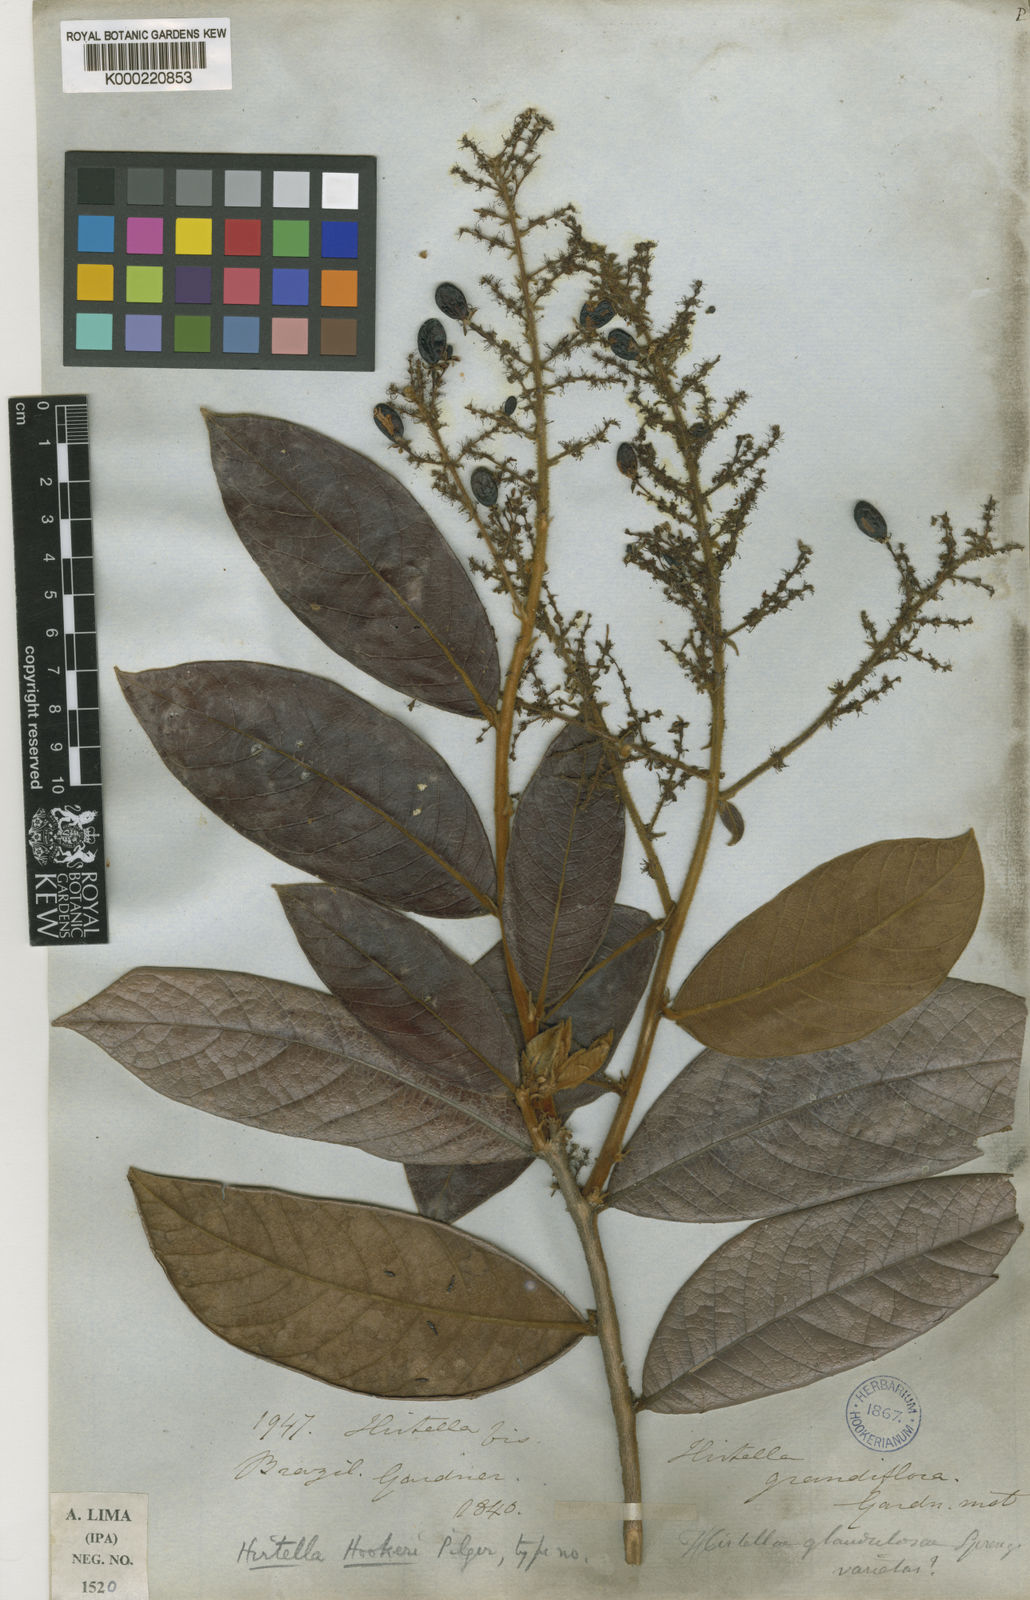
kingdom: Plantae
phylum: Tracheophyta
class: Magnoliopsida
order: Malpighiales
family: Chrysobalanaceae
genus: Hirtella
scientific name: Hirtella glandulosa
